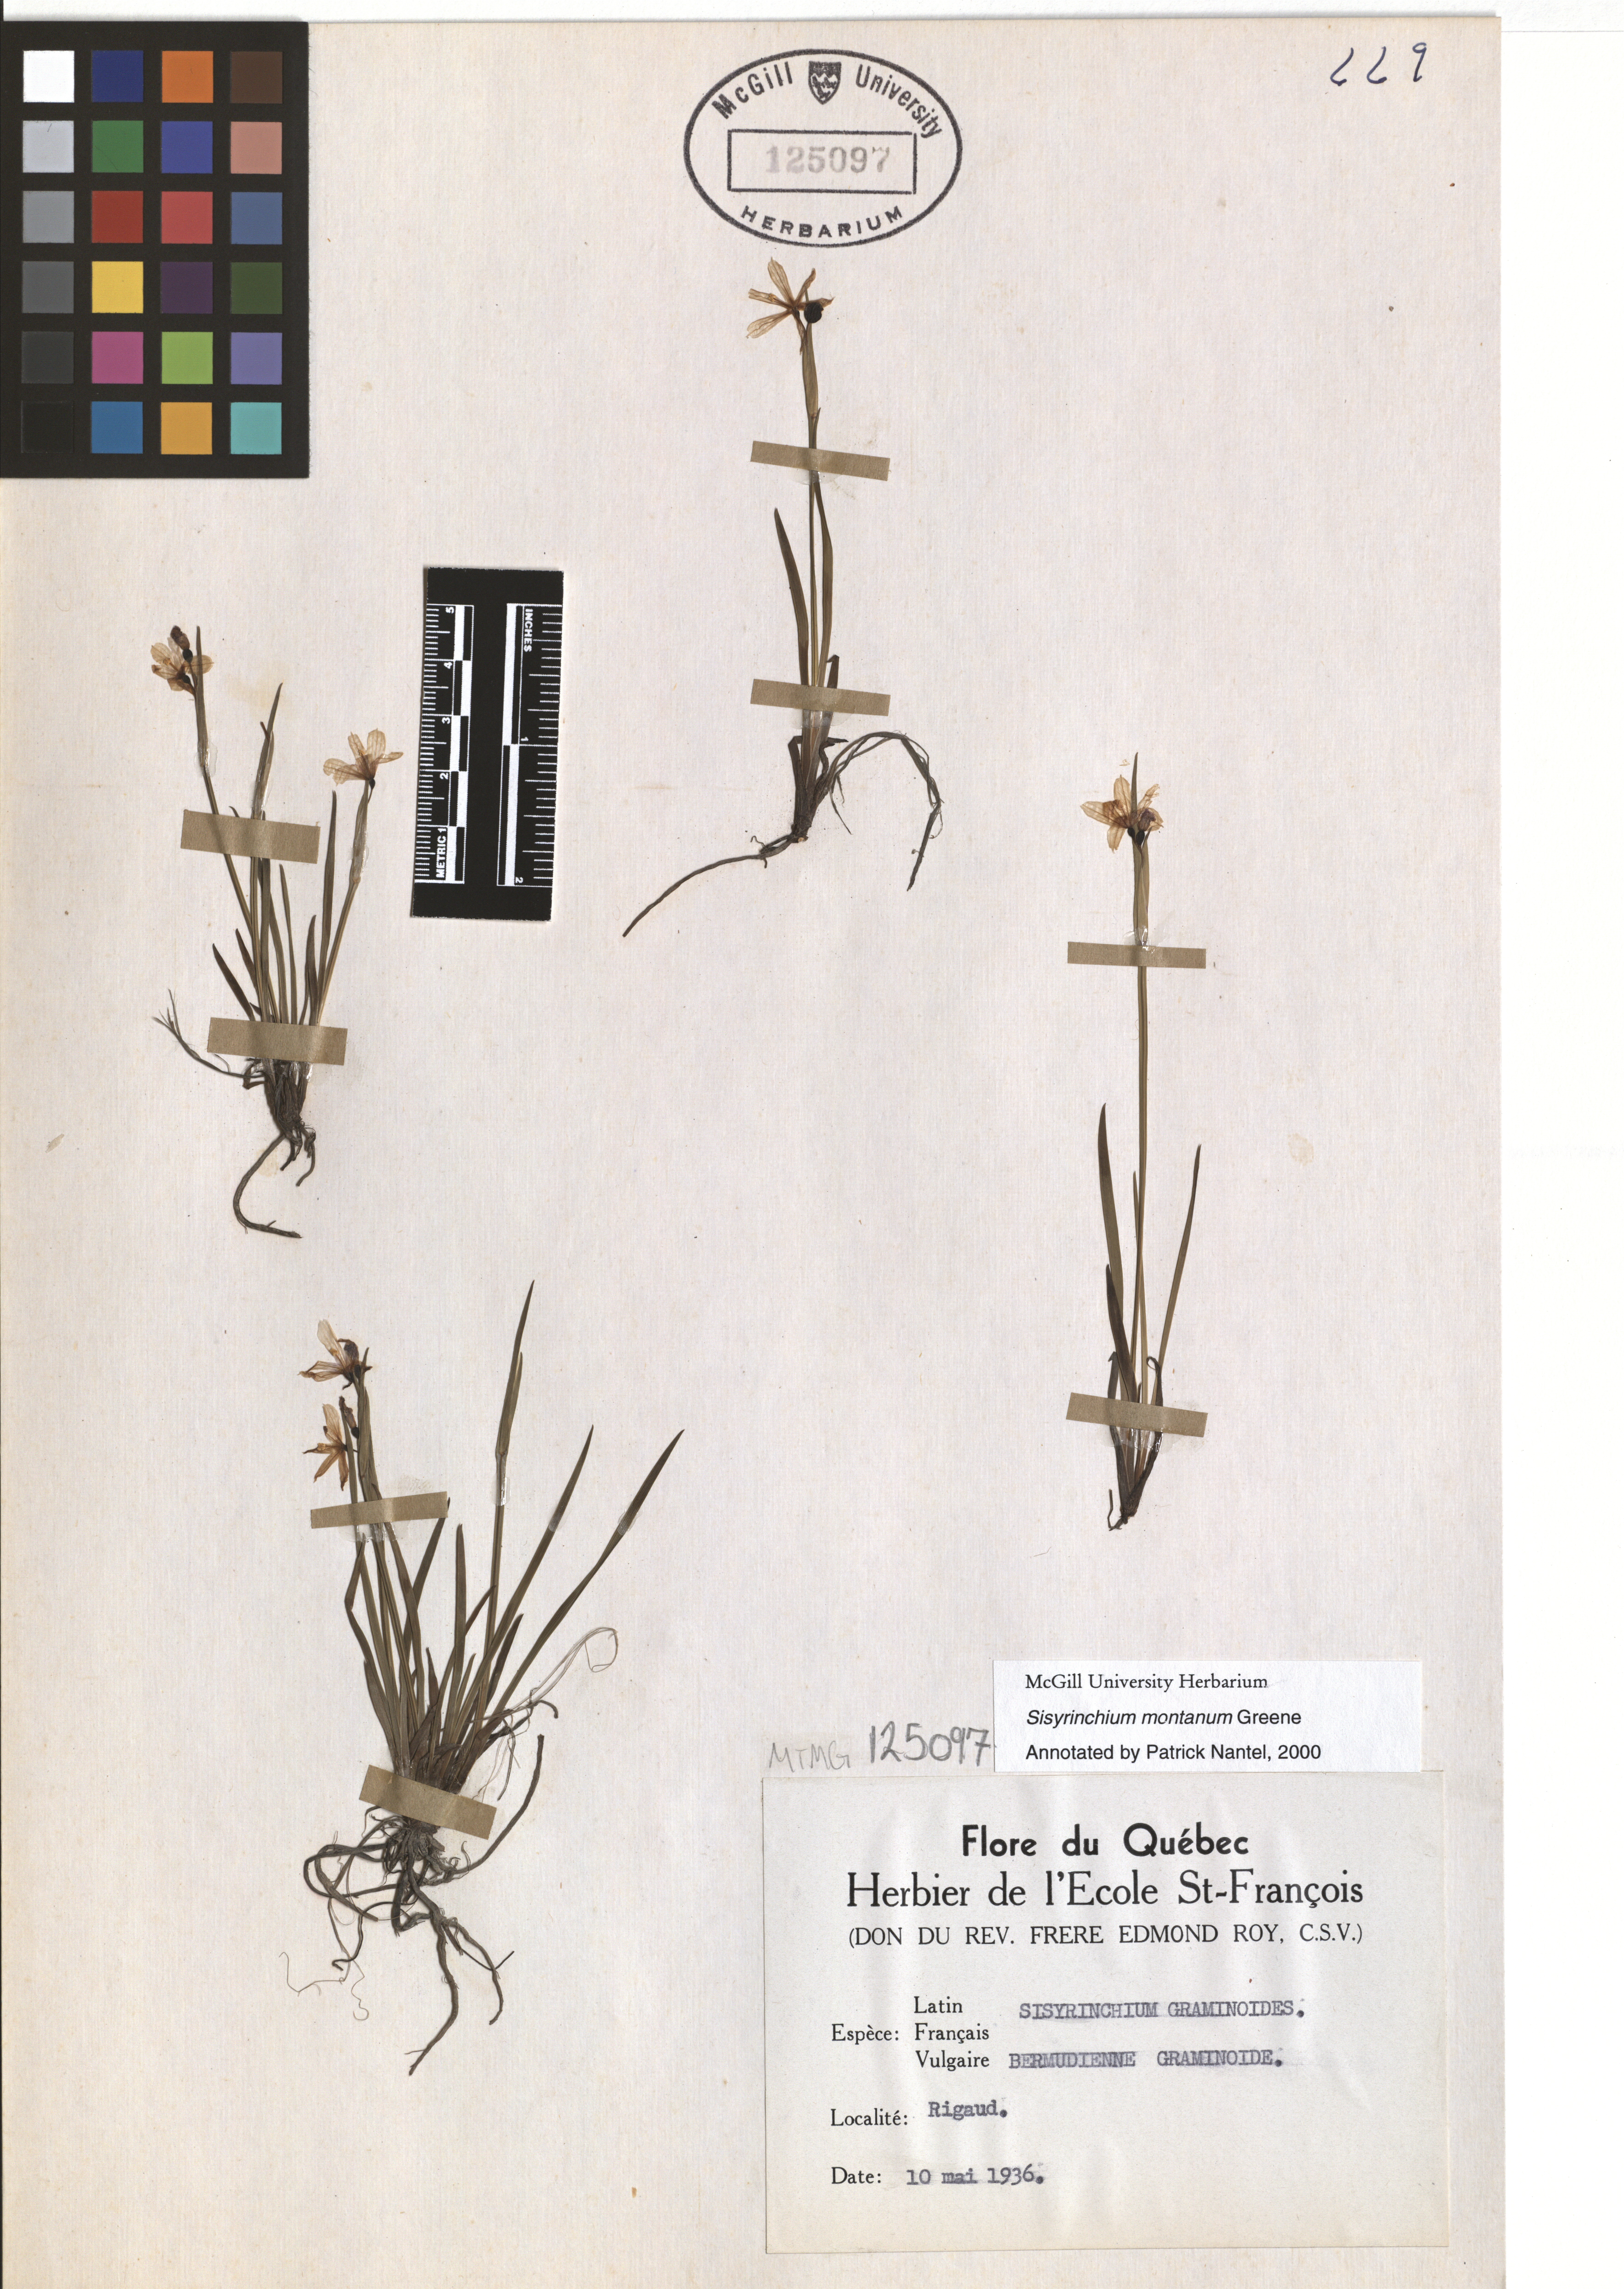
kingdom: Plantae
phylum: Tracheophyta
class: Liliopsida
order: Asparagales
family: Iridaceae
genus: Sisyrinchium
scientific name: Sisyrinchium montanum
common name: American blue-eyed-grass
